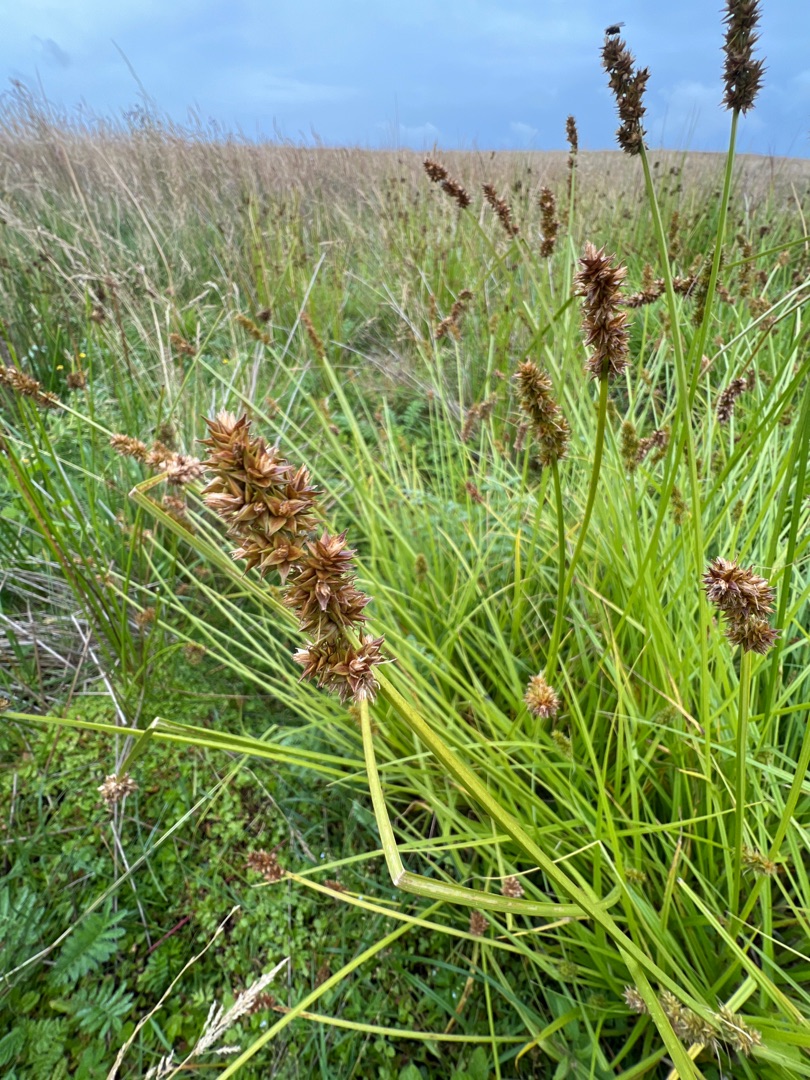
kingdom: Plantae
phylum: Tracheophyta
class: Liliopsida
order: Poales
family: Cyperaceae
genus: Carex
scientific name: Carex otrubae
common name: Sylt-star
